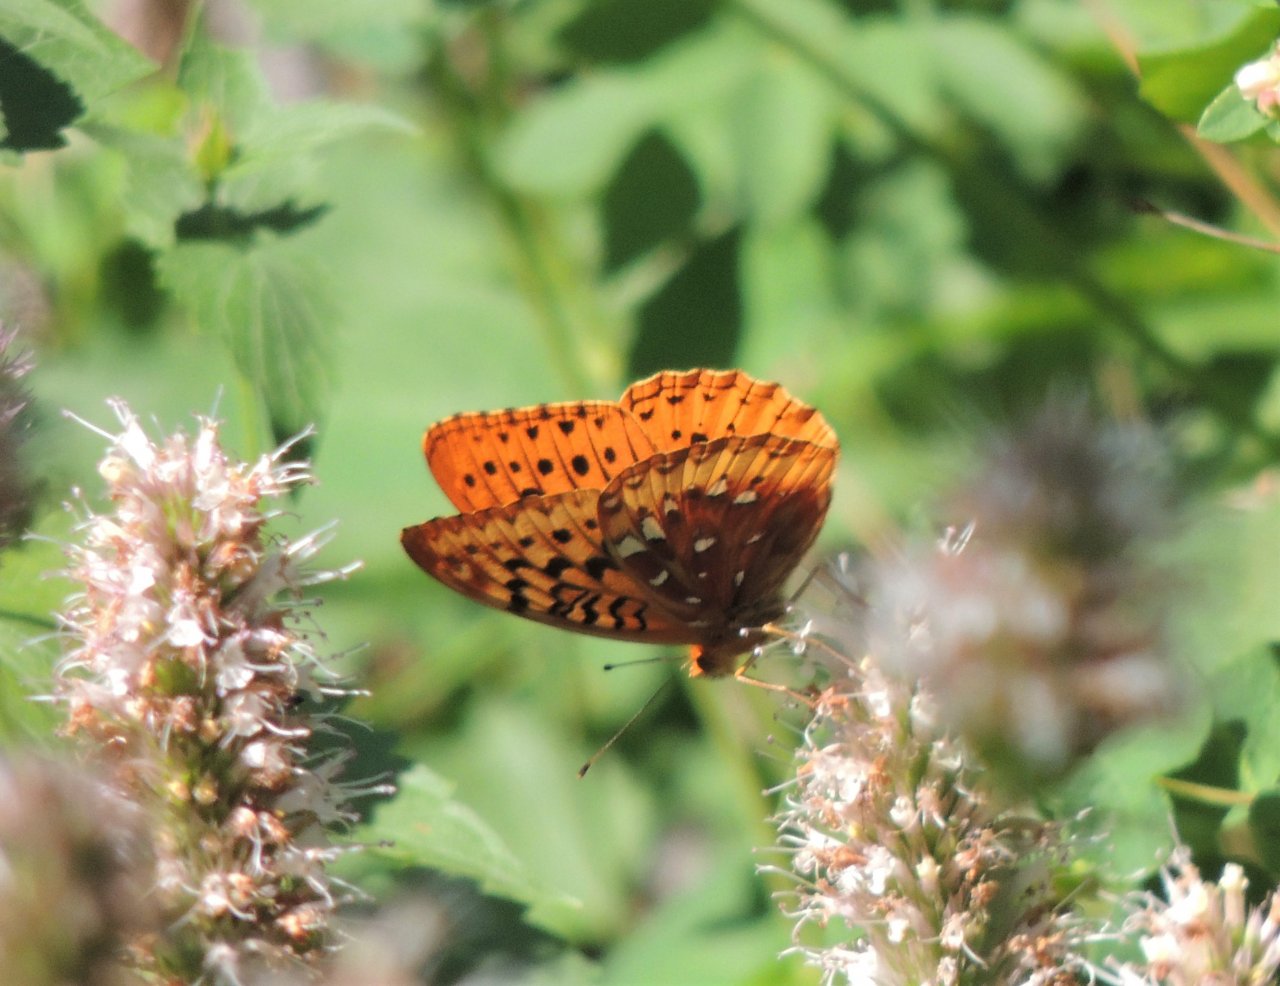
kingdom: Animalia
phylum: Arthropoda
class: Insecta
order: Lepidoptera
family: Nymphalidae
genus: Speyeria
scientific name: Speyeria cybele
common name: Great Spangled Fritillary
